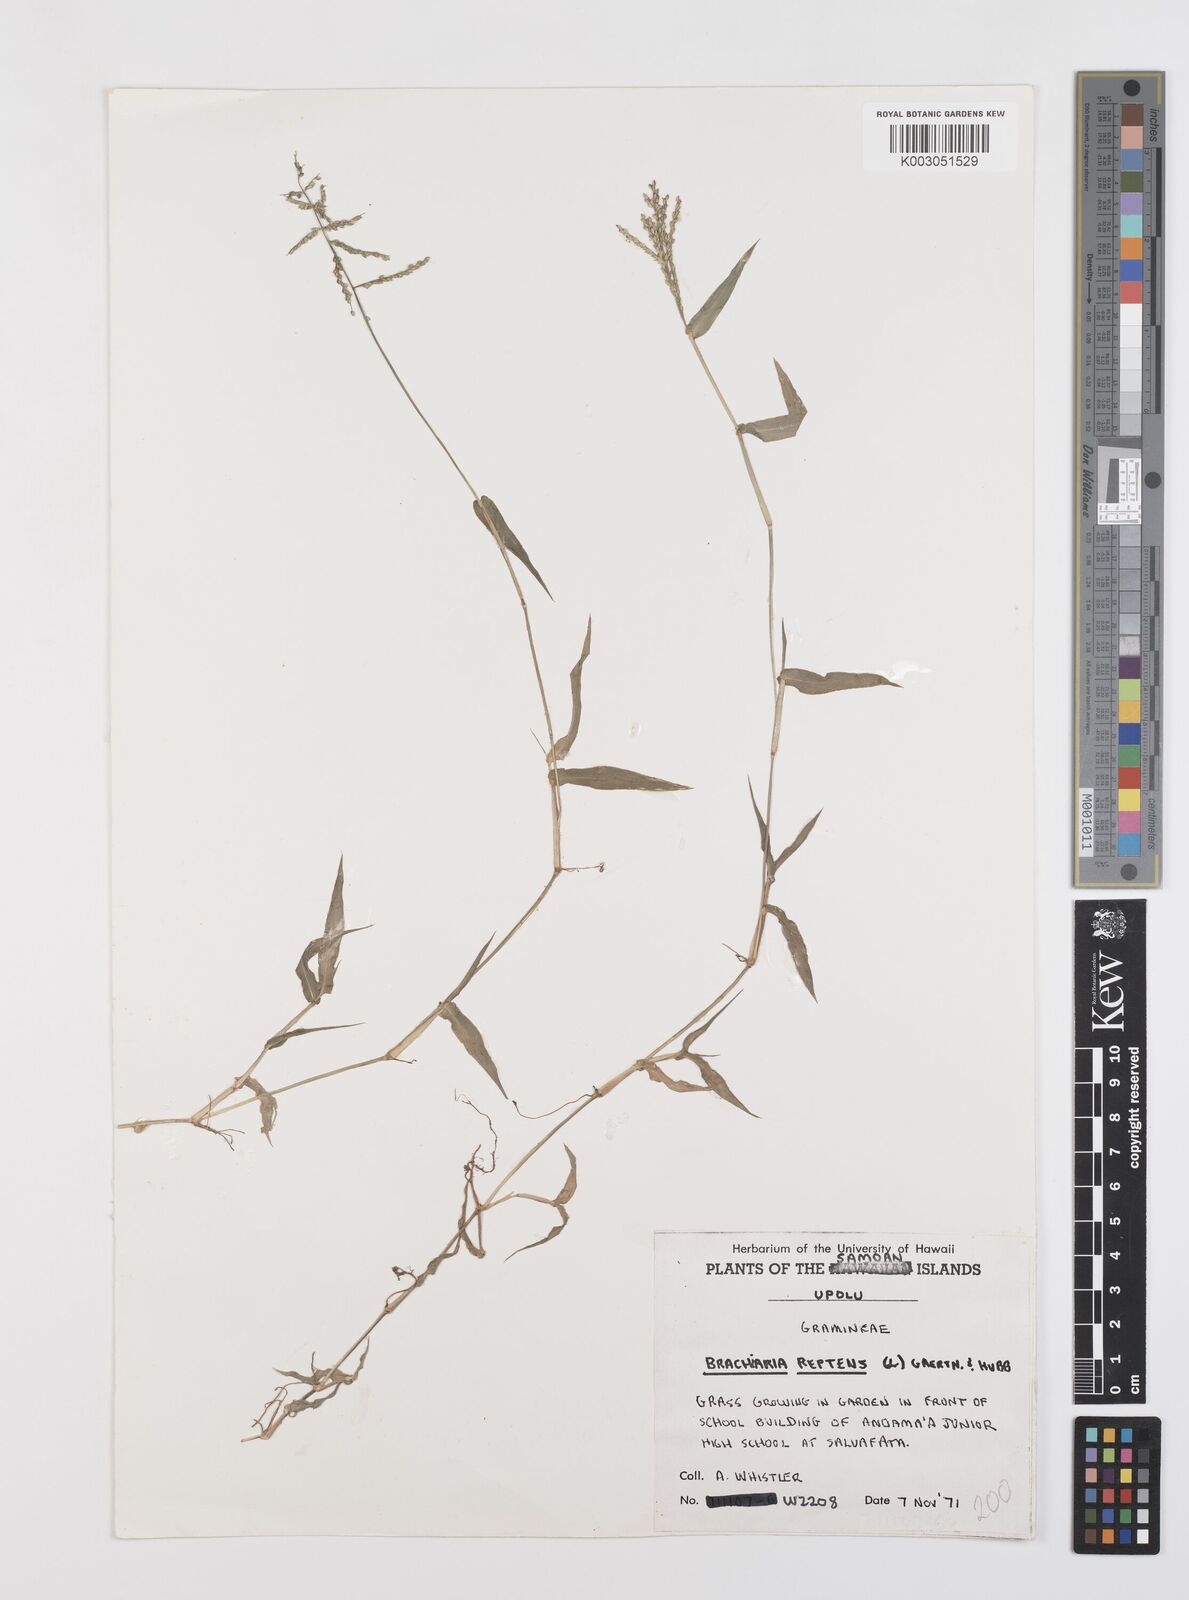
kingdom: Plantae
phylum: Tracheophyta
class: Liliopsida
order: Poales
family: Poaceae
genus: Urochloa
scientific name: Urochloa reptans
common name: Sprawling signalgrass
